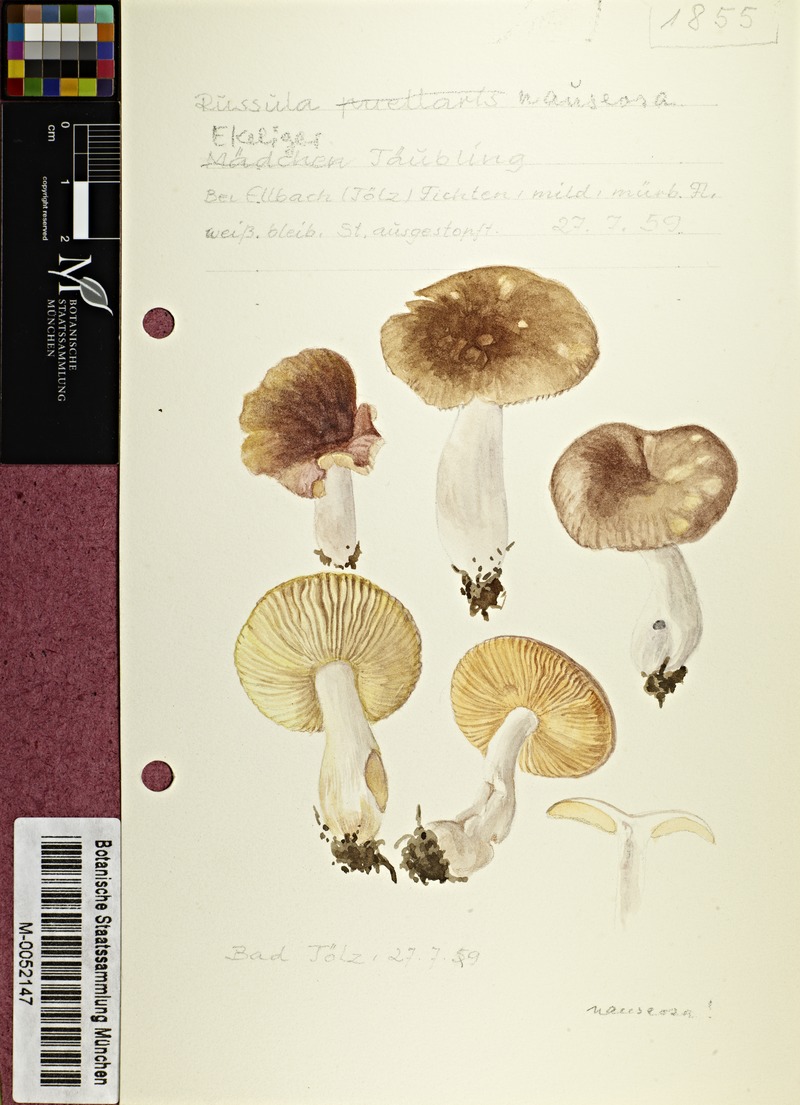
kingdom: Fungi
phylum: Basidiomycota
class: Agaricomycetes
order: Russulales
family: Russulaceae
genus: Russula
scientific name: Russula nauseosa
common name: Nauseous brittlegill
